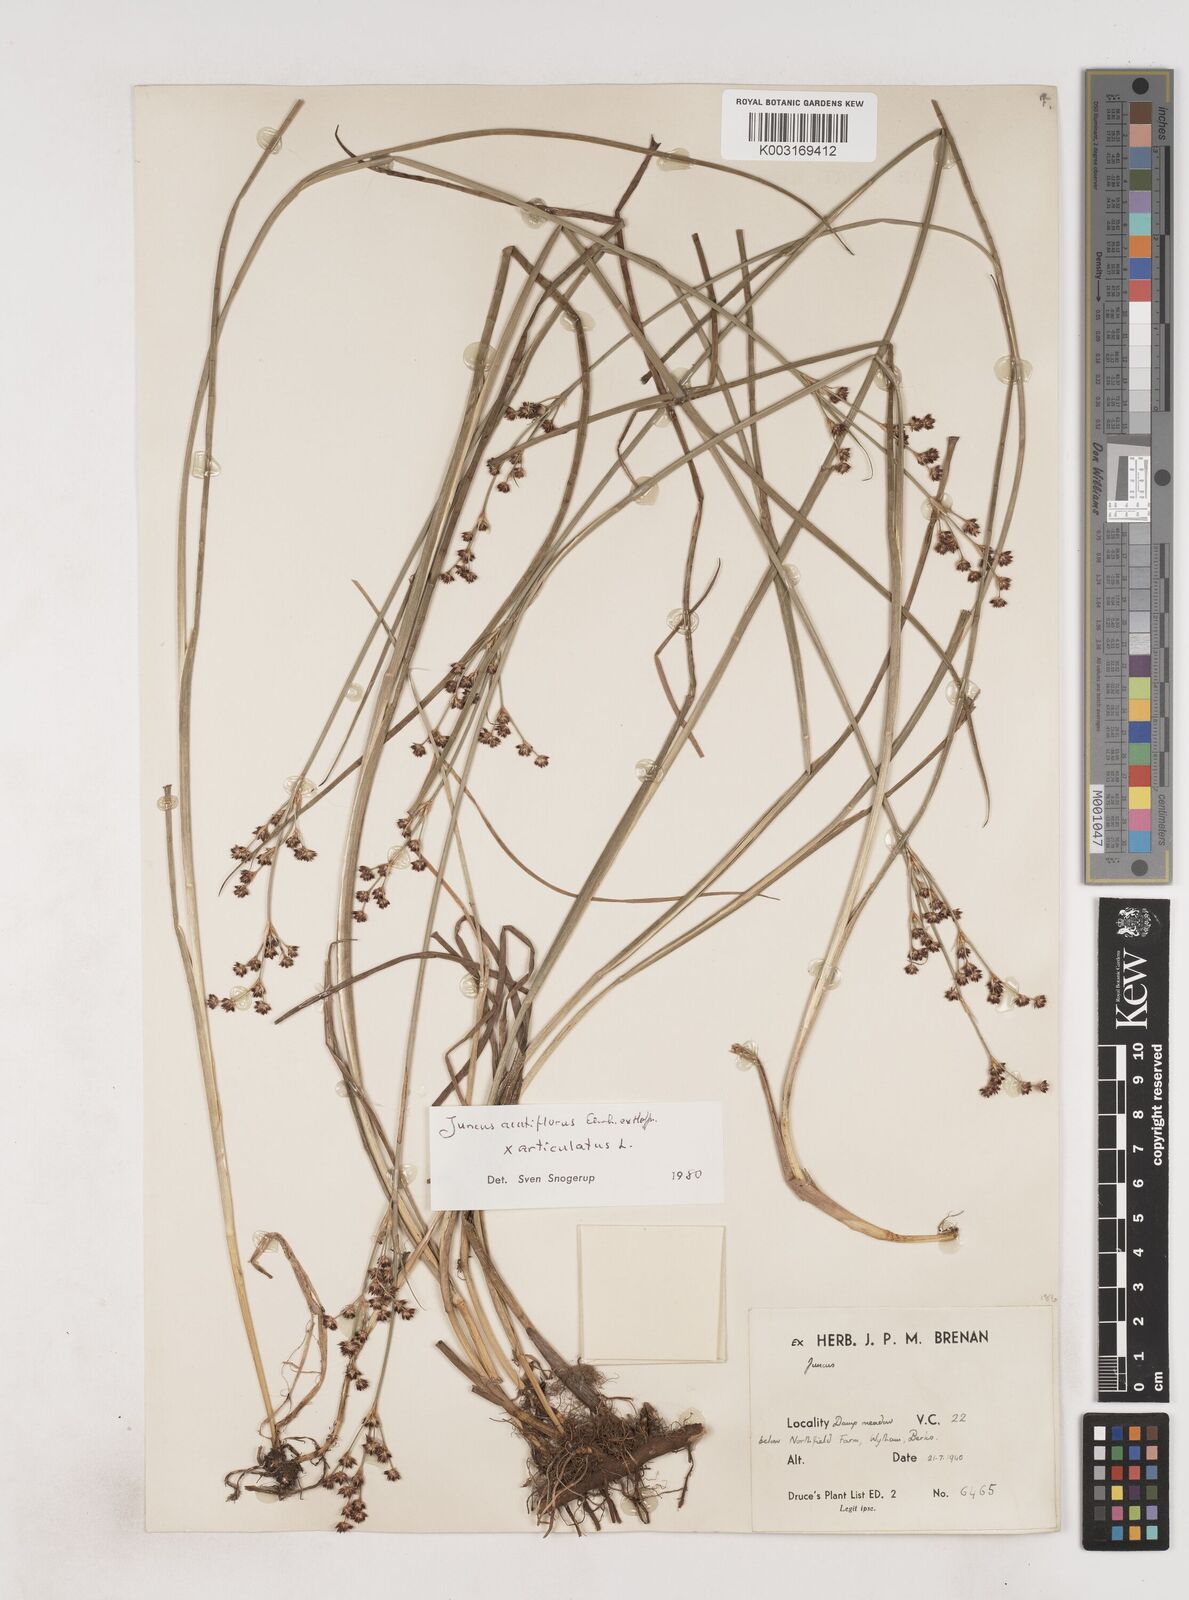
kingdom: Plantae
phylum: Tracheophyta
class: Liliopsida
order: Poales
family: Juncaceae
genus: Juncus
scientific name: Juncus acutiflorus
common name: Sharp-flowered rush
